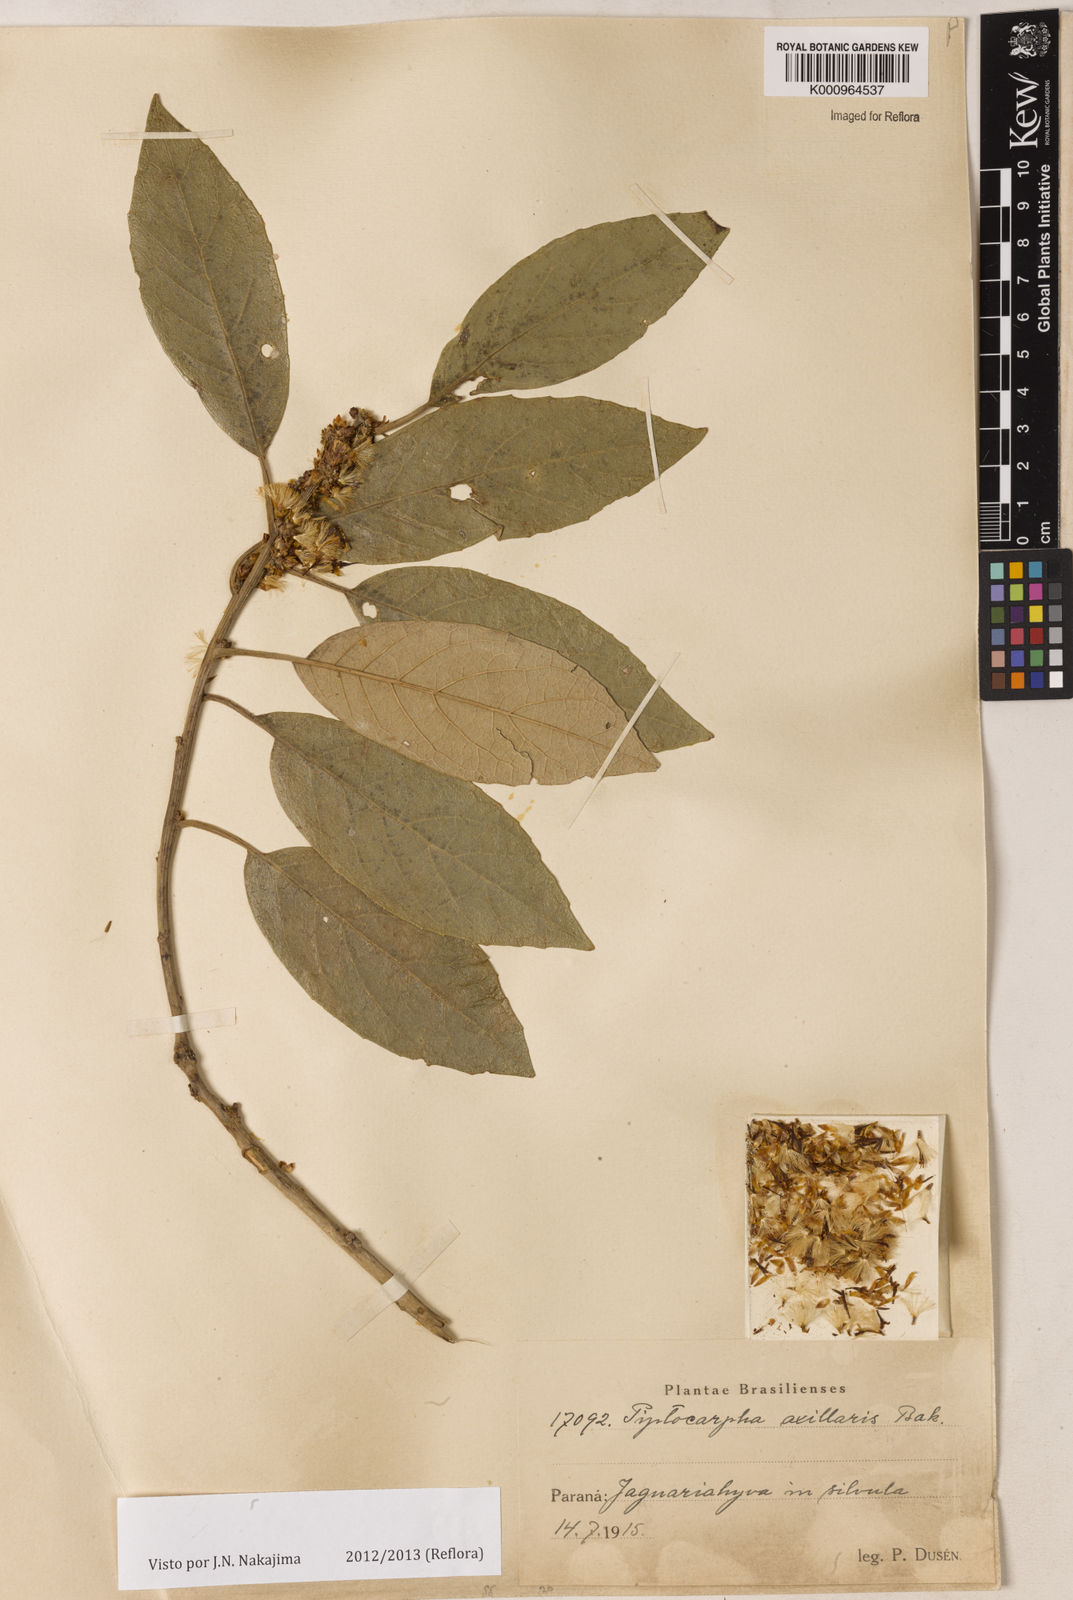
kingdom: Plantae
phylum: Tracheophyta
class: Magnoliopsida
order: Asterales
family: Asteraceae
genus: Piptocarpha
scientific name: Piptocarpha axillaris
